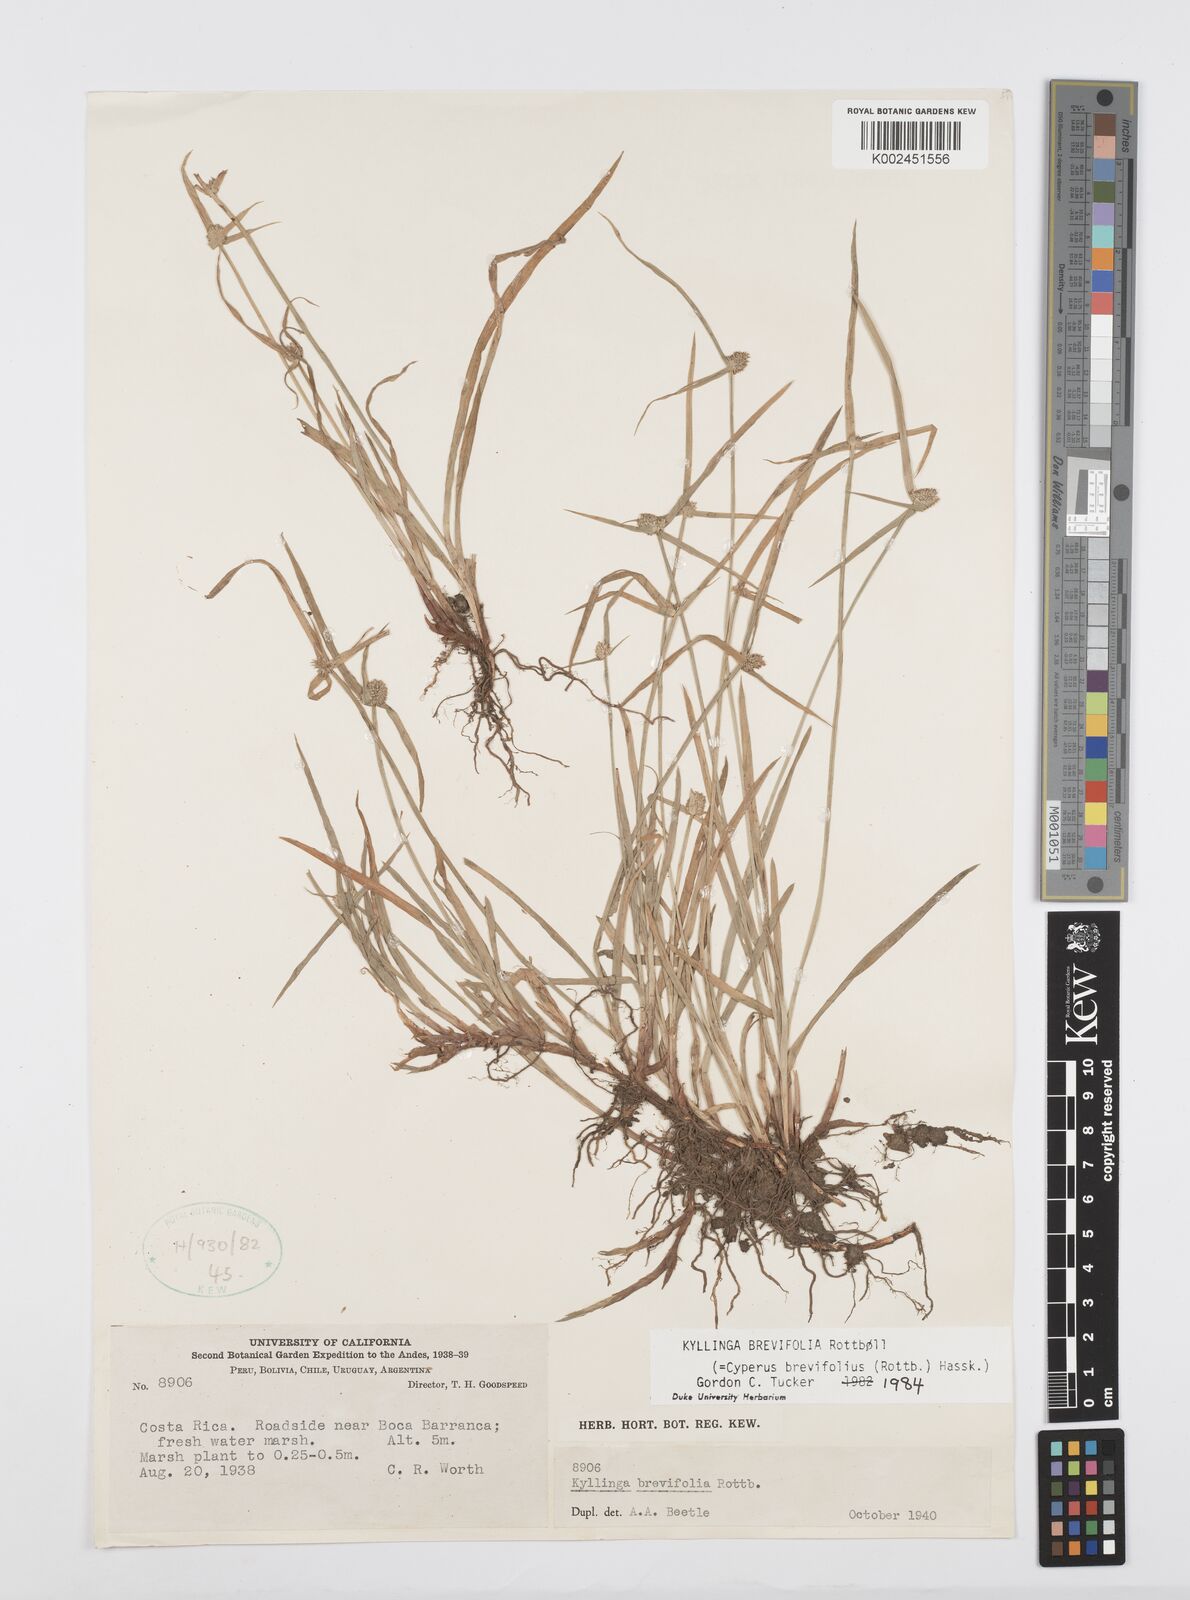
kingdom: Plantae
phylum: Tracheophyta
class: Liliopsida
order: Poales
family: Cyperaceae
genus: Cyperus
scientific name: Cyperus
